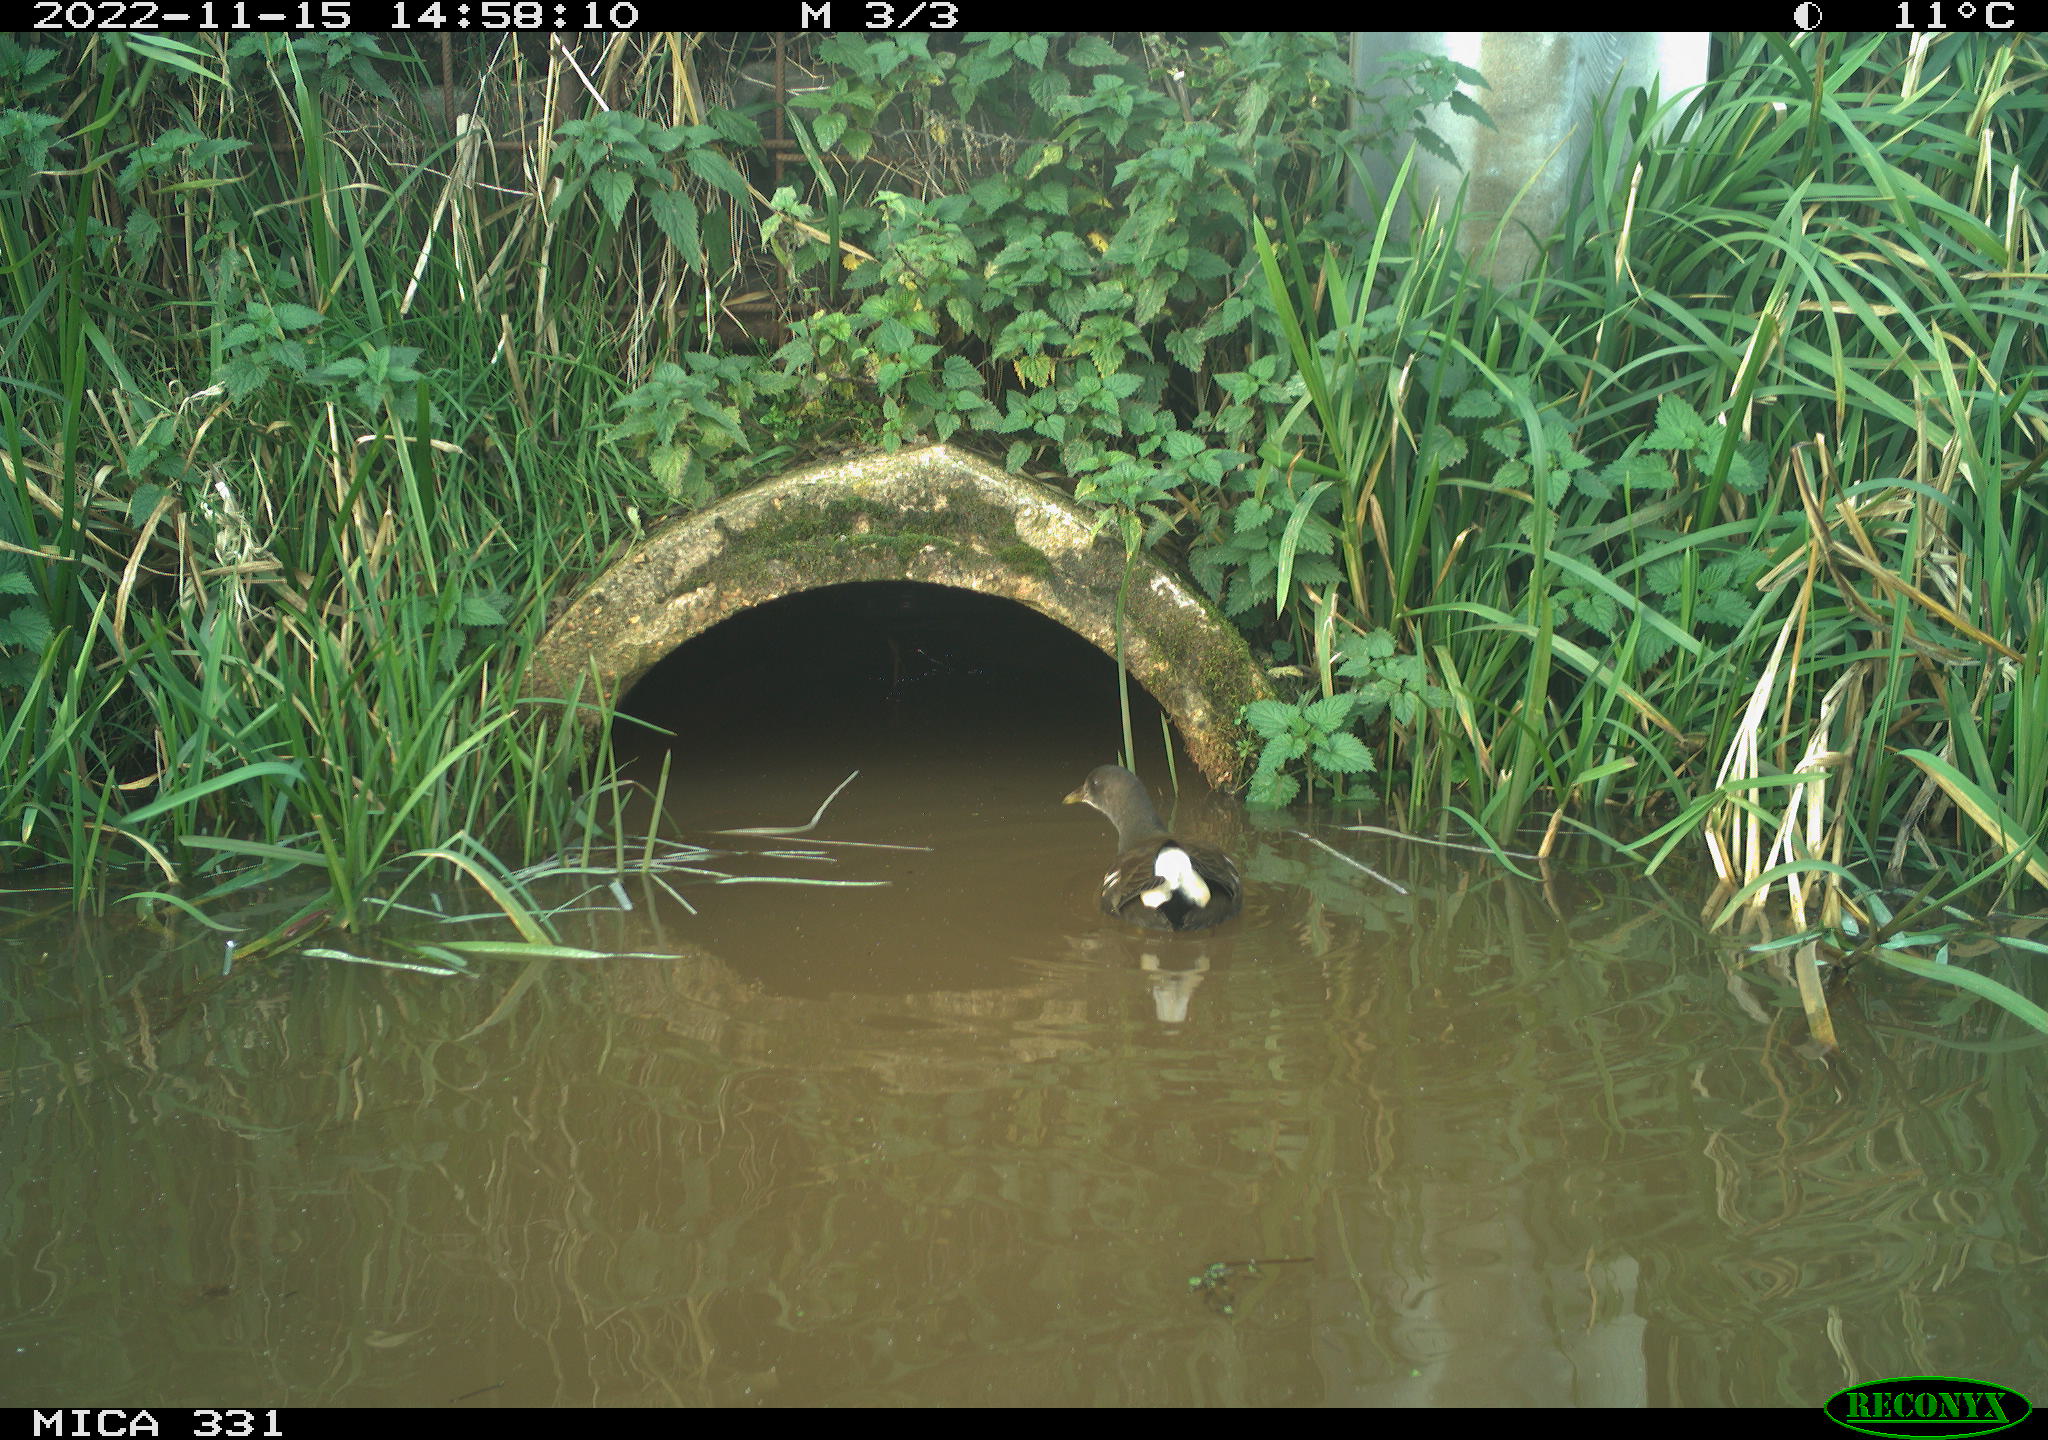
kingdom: Animalia
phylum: Chordata
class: Aves
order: Gruiformes
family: Rallidae
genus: Gallinula
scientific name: Gallinula chloropus
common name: Common moorhen
